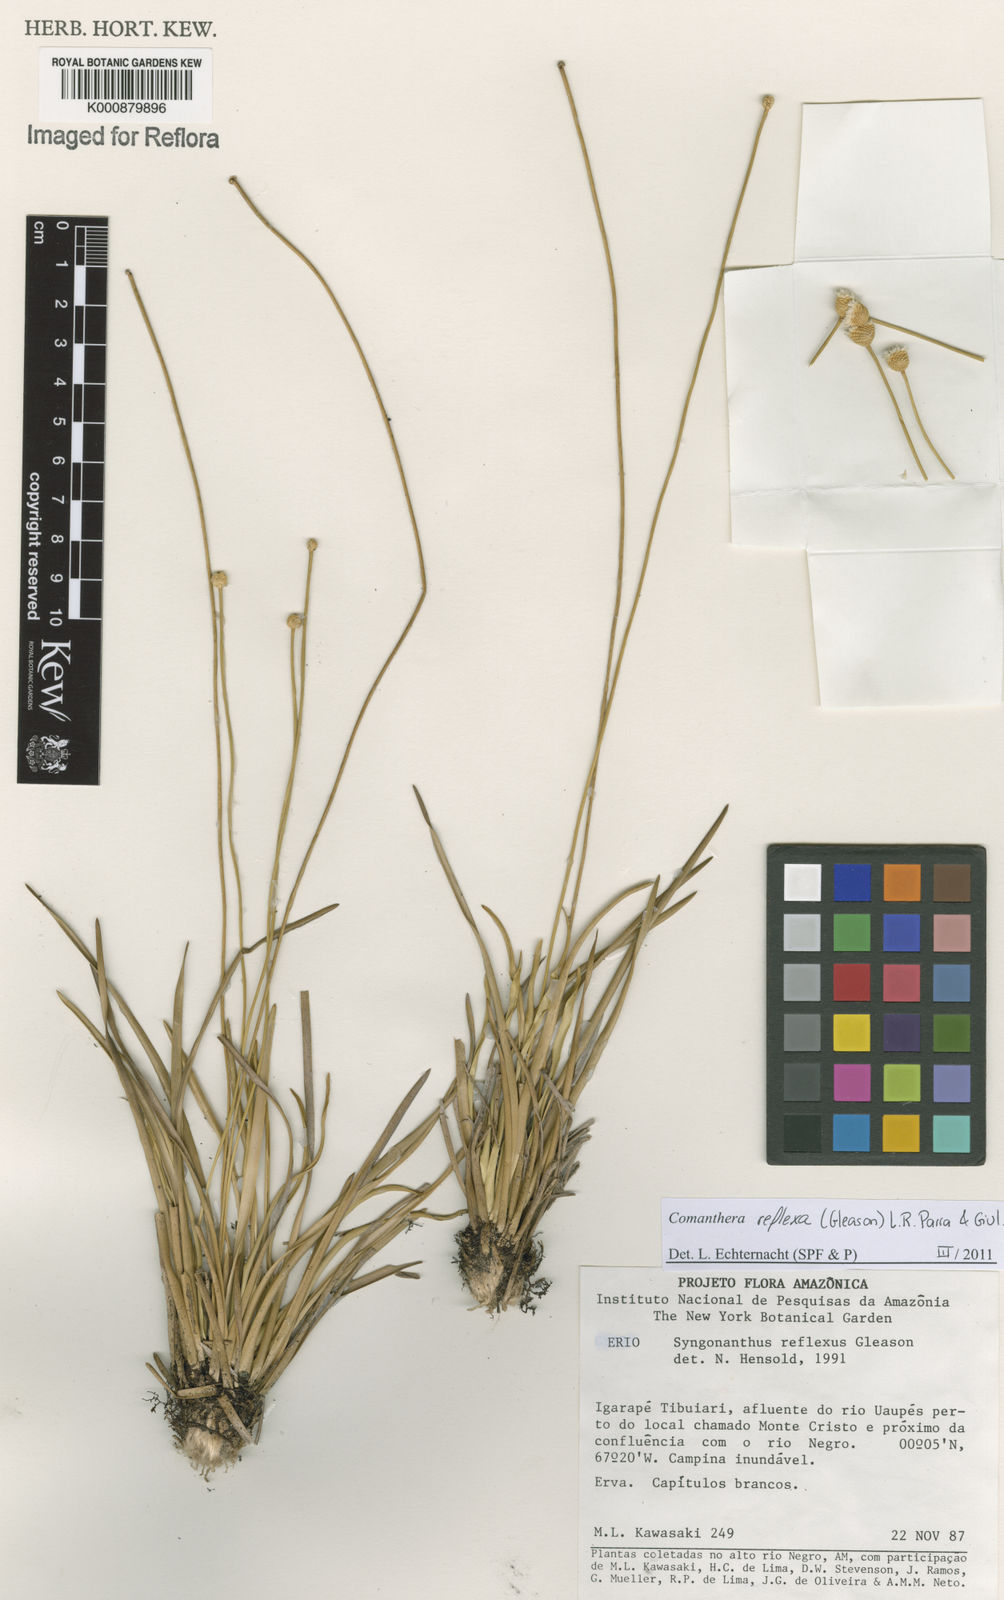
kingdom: Plantae
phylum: Tracheophyta
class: Liliopsida
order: Poales
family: Eriocaulaceae
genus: Comanthera
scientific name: Comanthera reflexa
